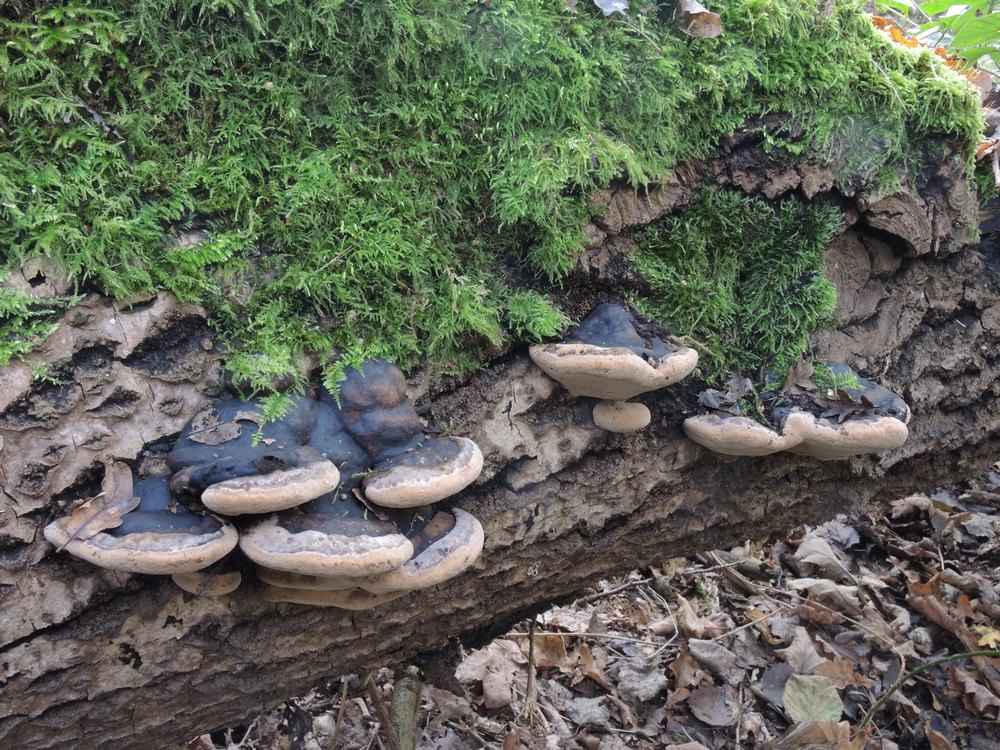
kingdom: Fungi
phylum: Basidiomycota
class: Agaricomycetes
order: Hymenochaetales
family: Hymenochaetaceae
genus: Phellinus
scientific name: Phellinus populicola
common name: poppel-ildporesvamp
